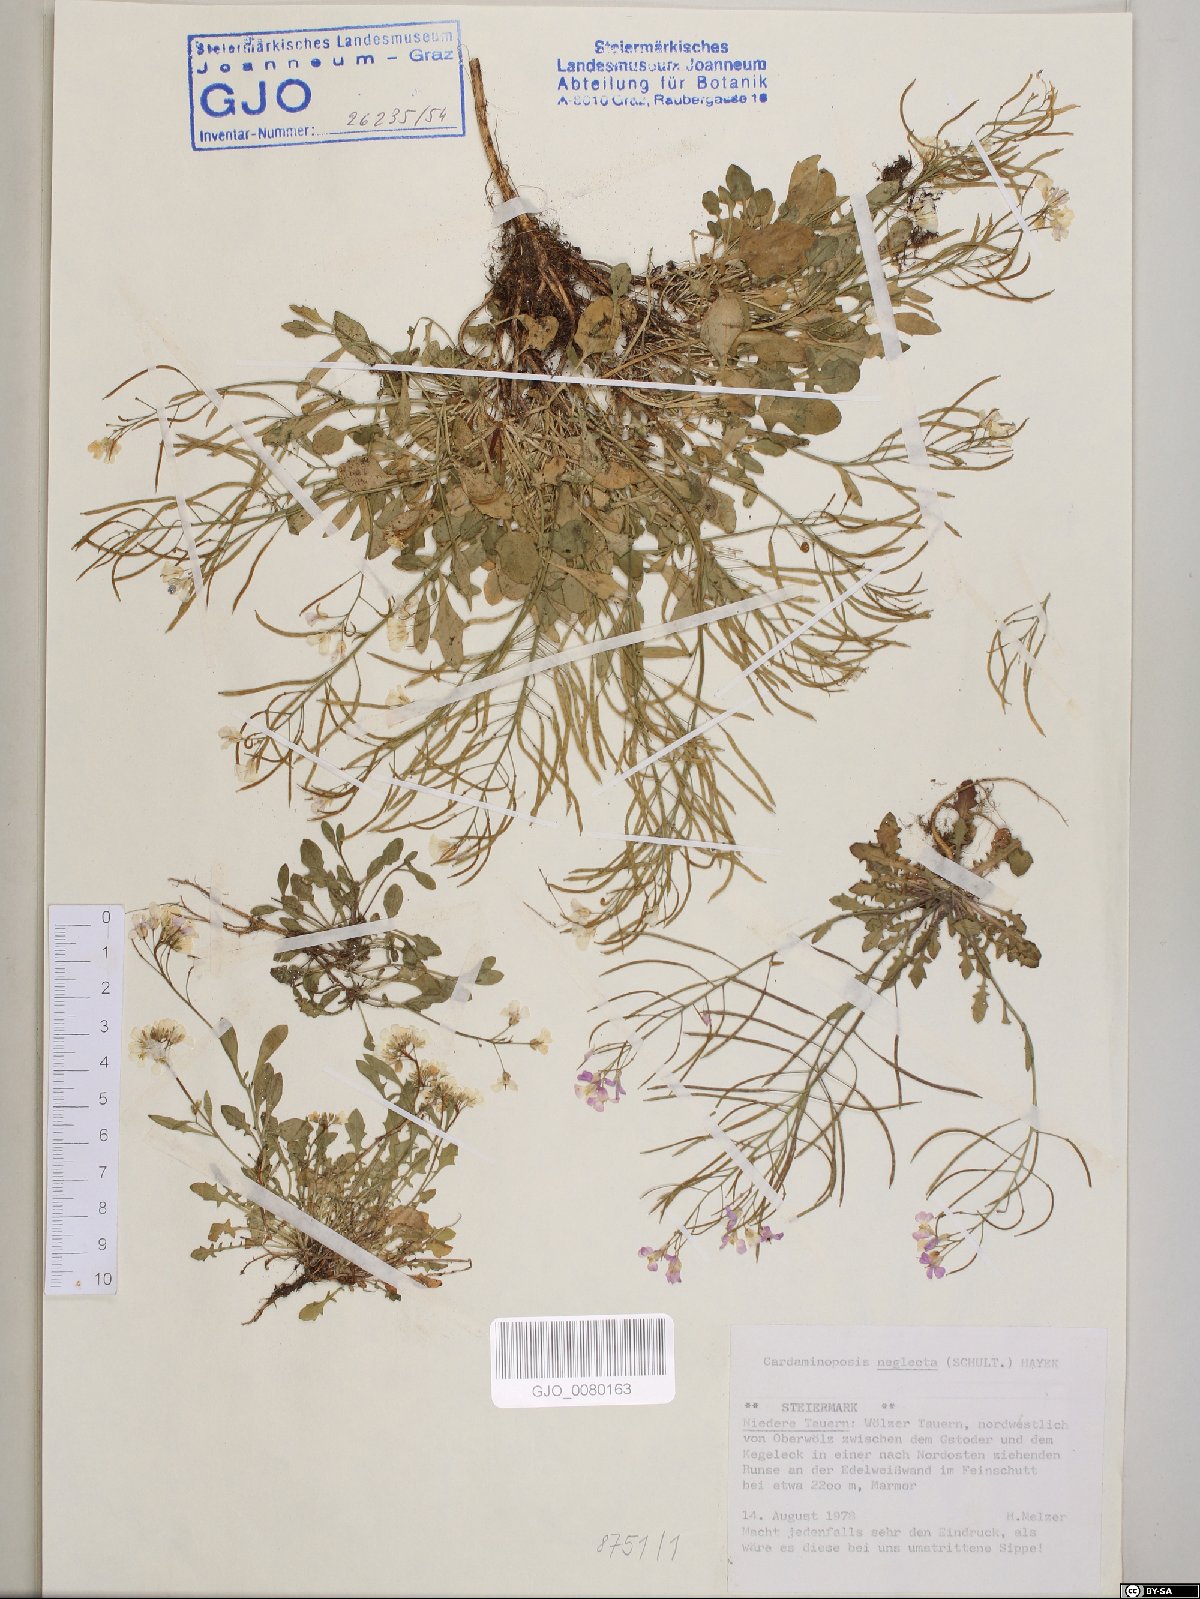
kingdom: Plantae
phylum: Tracheophyta
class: Magnoliopsida
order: Brassicales
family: Brassicaceae
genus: Arabidopsis
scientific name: Arabidopsis neglecta
